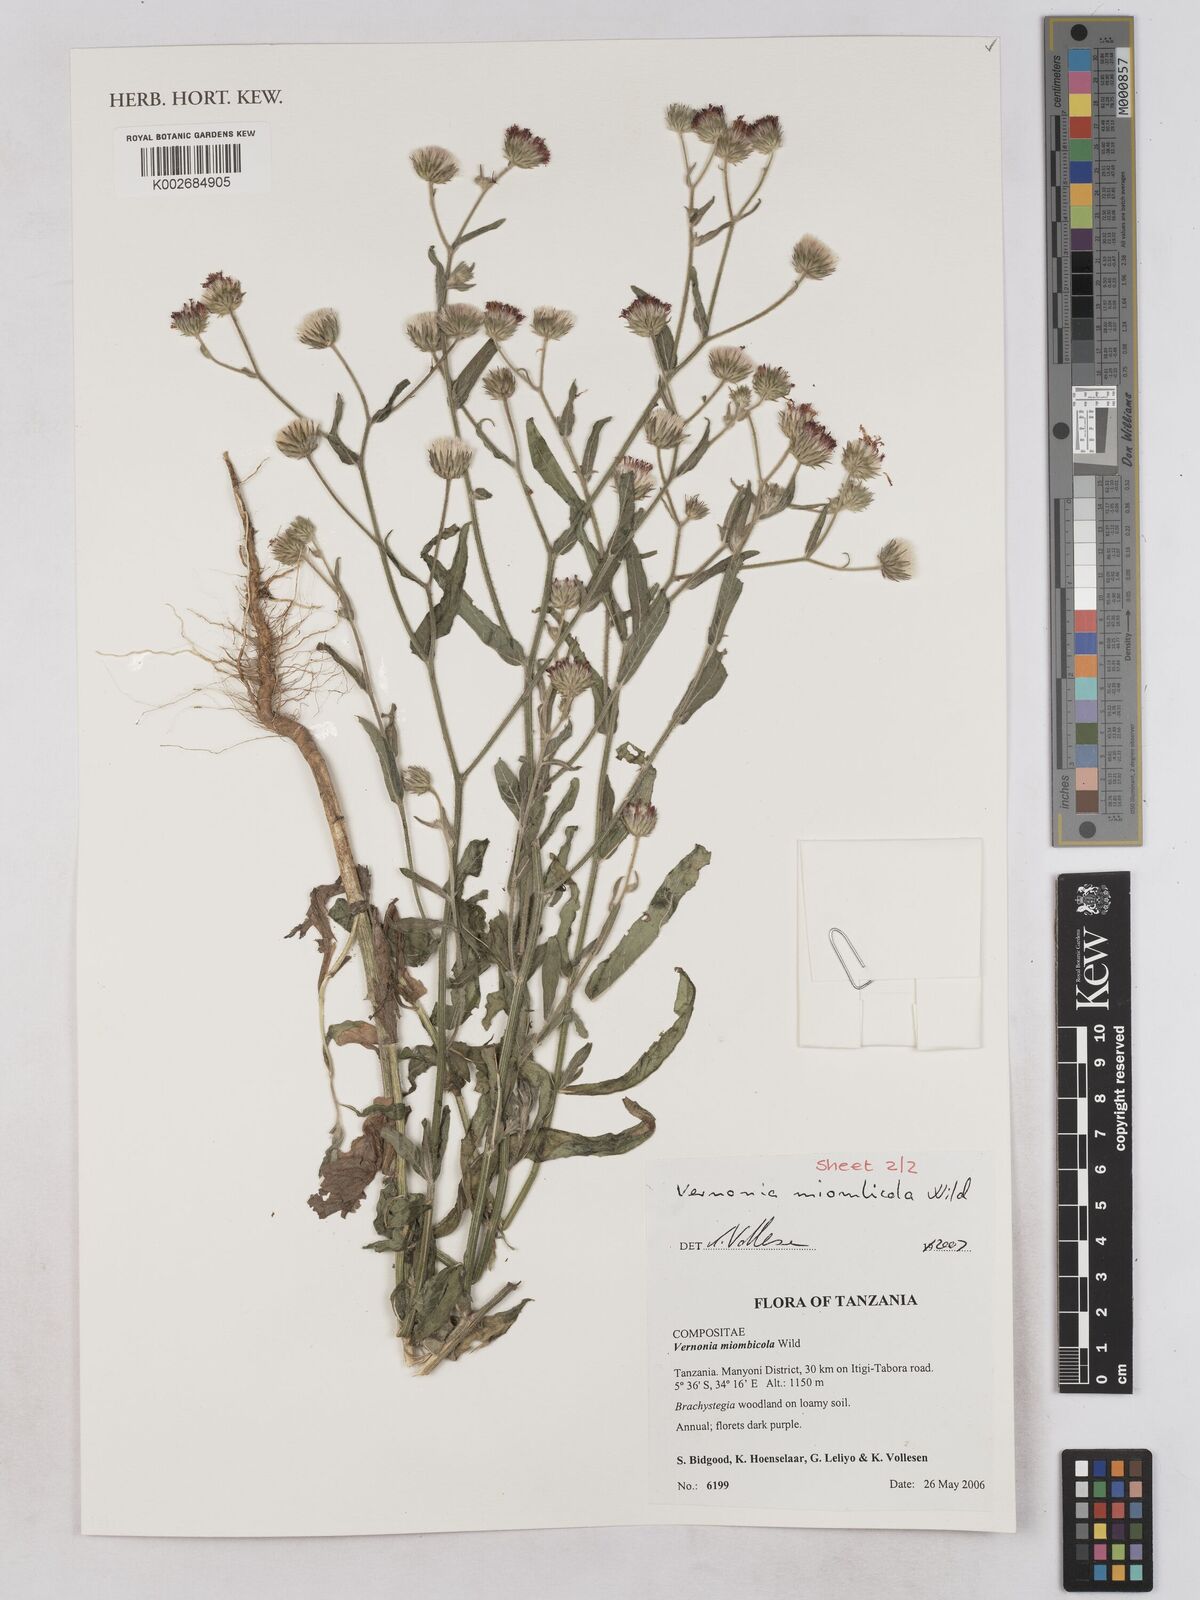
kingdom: Plantae
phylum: Tracheophyta
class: Magnoliopsida
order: Asterales
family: Asteraceae
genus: Vernonia
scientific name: Vernonia miombicola
